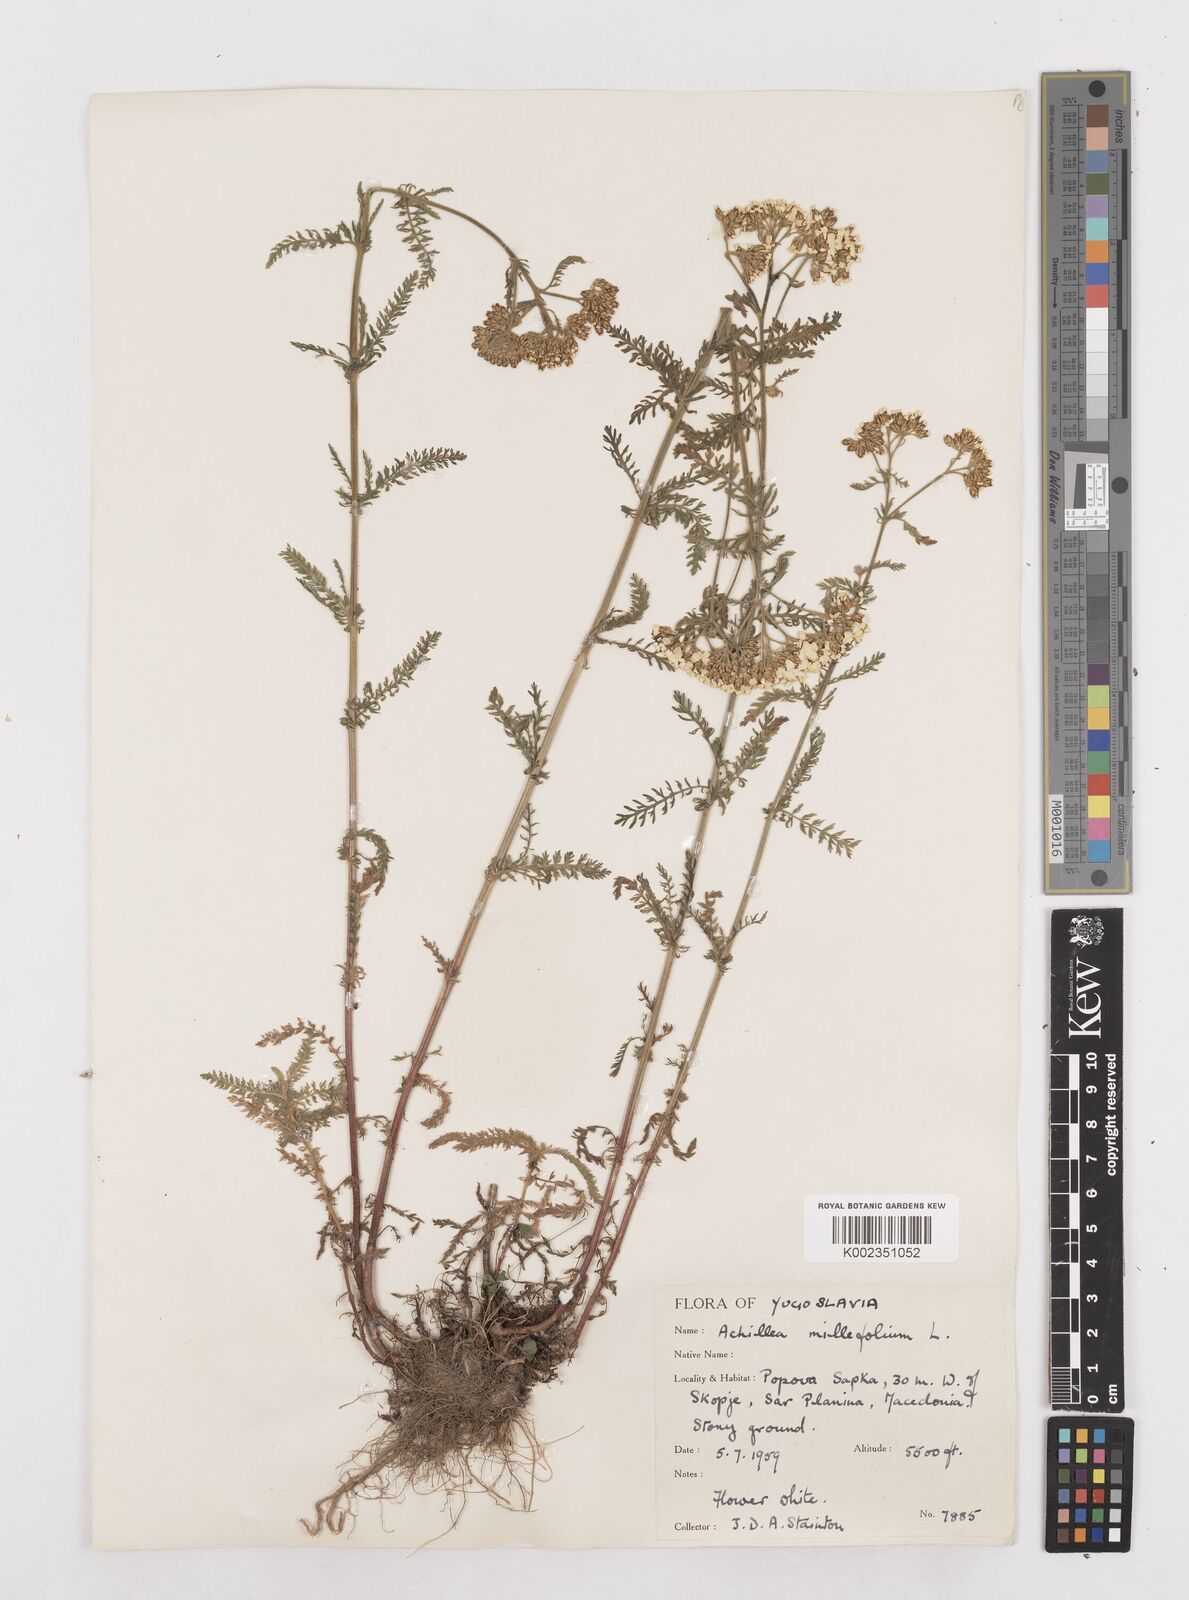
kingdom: Plantae
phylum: Tracheophyta
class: Magnoliopsida
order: Asterales
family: Asteraceae
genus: Achillea
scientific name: Achillea millefolium
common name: Yarrow
